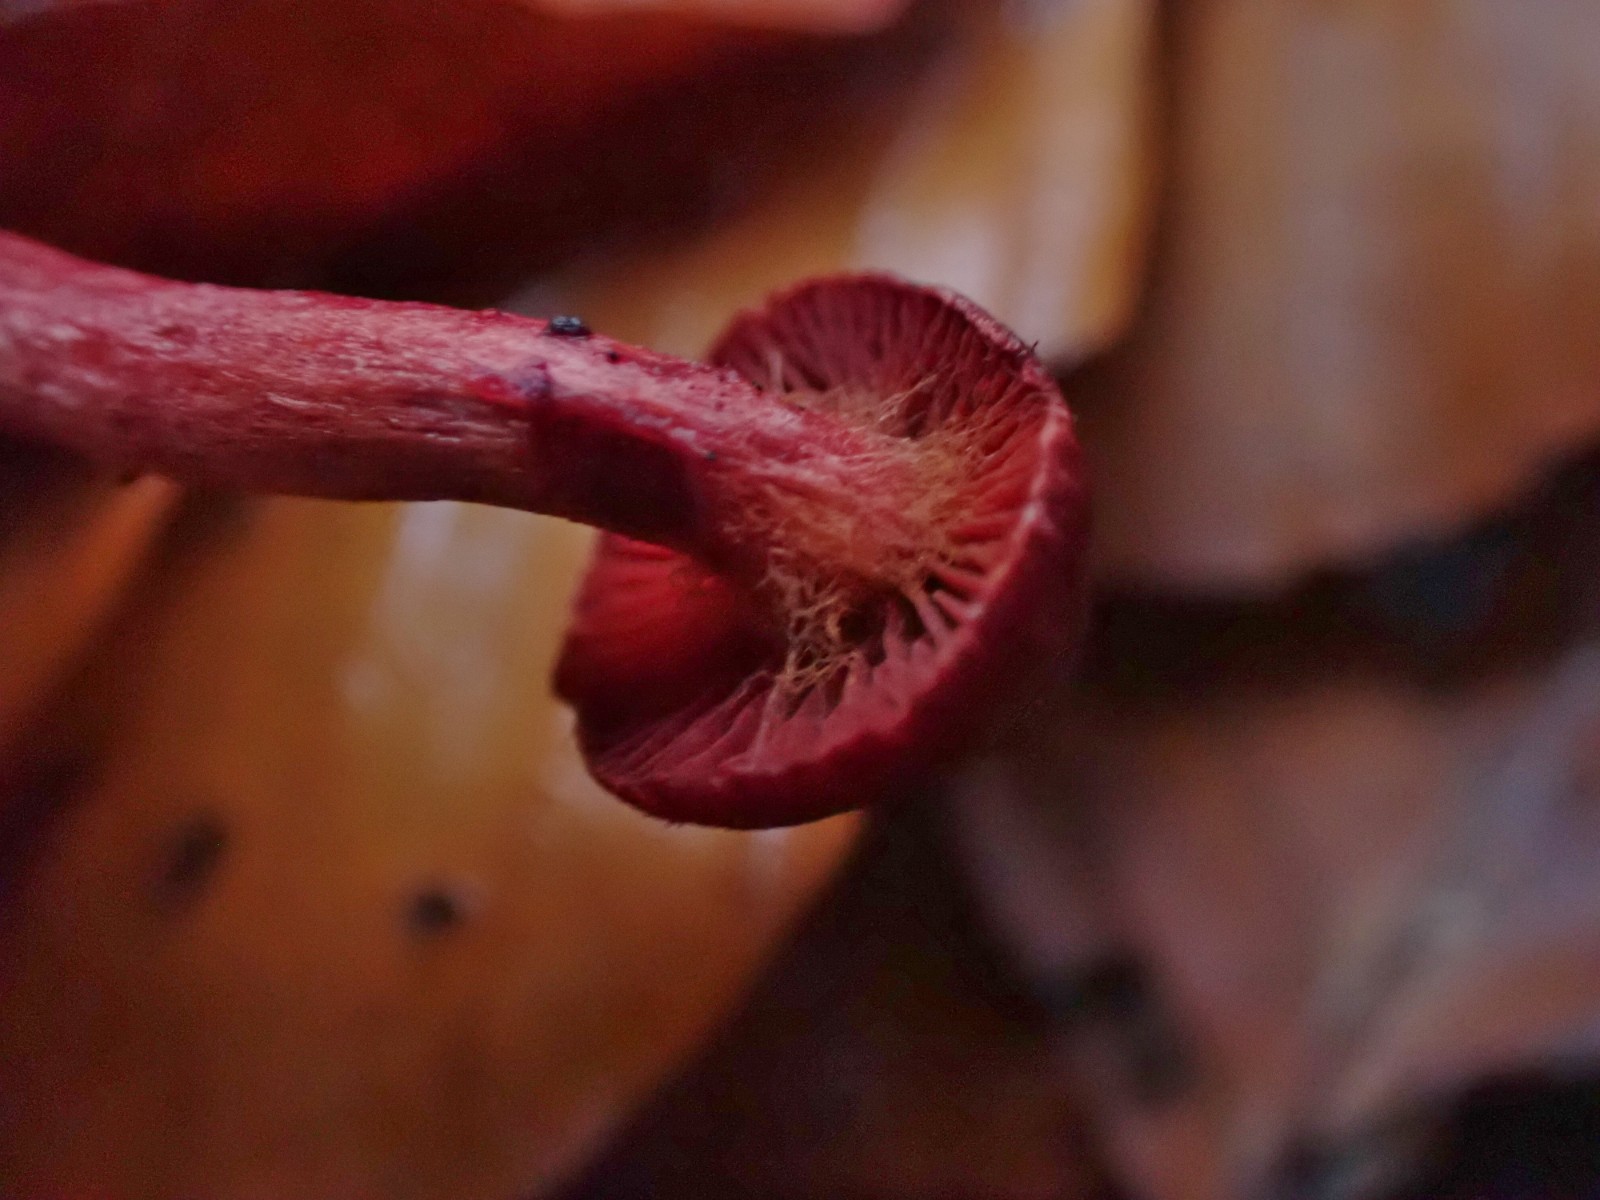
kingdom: Fungi
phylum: Basidiomycota
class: Agaricomycetes
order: Agaricales
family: Cortinariaceae
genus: Cortinarius
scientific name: Cortinarius sanguineus
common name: Bloodred webcap
